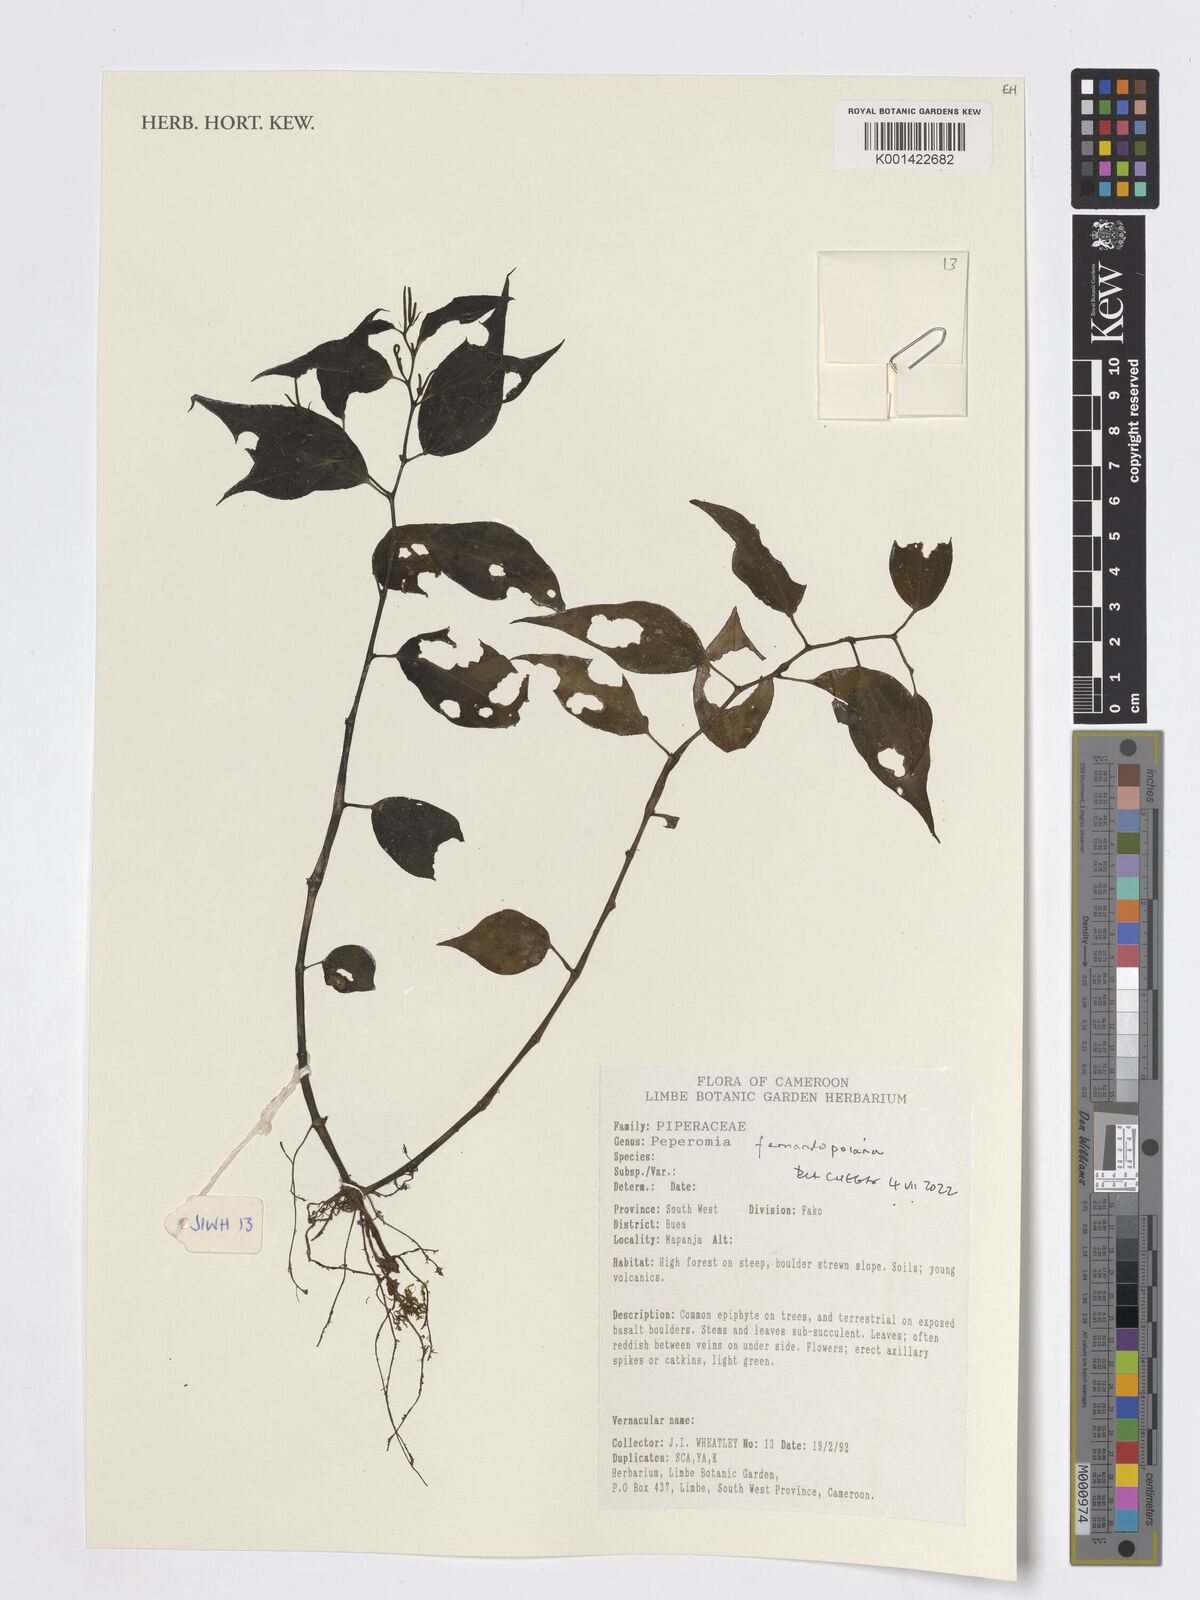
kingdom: Plantae
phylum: Tracheophyta
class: Magnoliopsida
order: Piperales
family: Piperaceae
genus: Peperomia
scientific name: Peperomia fernandopoiana
